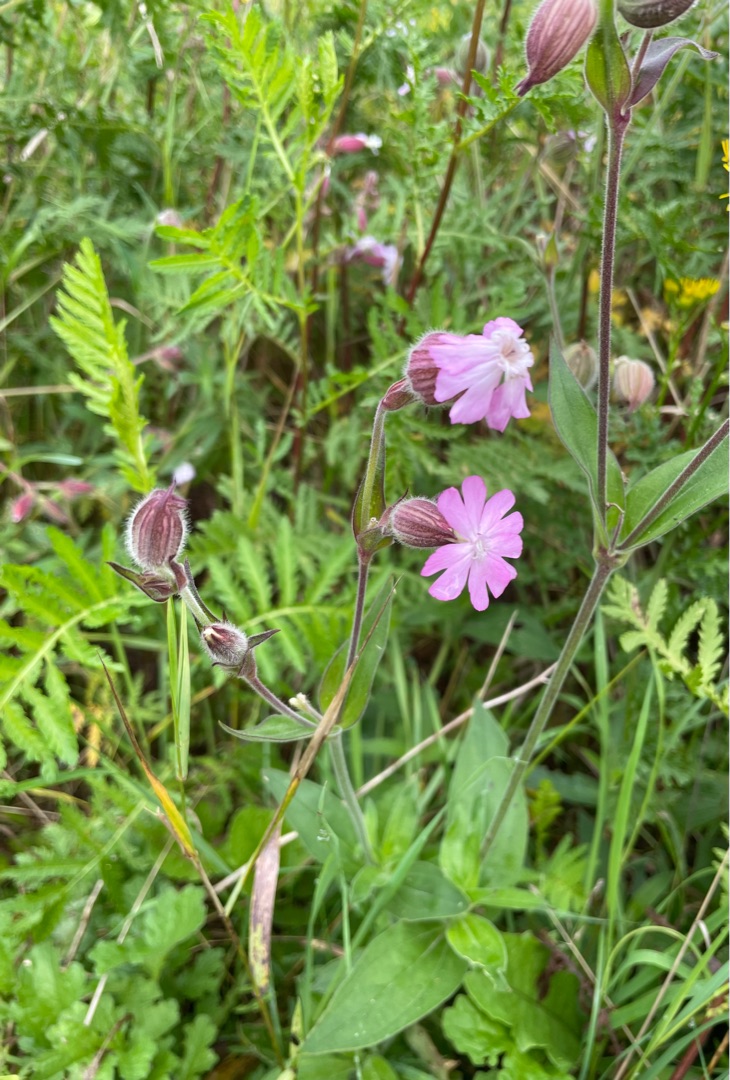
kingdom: Plantae
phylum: Tracheophyta
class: Magnoliopsida
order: Caryophyllales
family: Caryophyllaceae
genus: Silene
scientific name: Silene dioica
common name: Dagpragtstjerne
